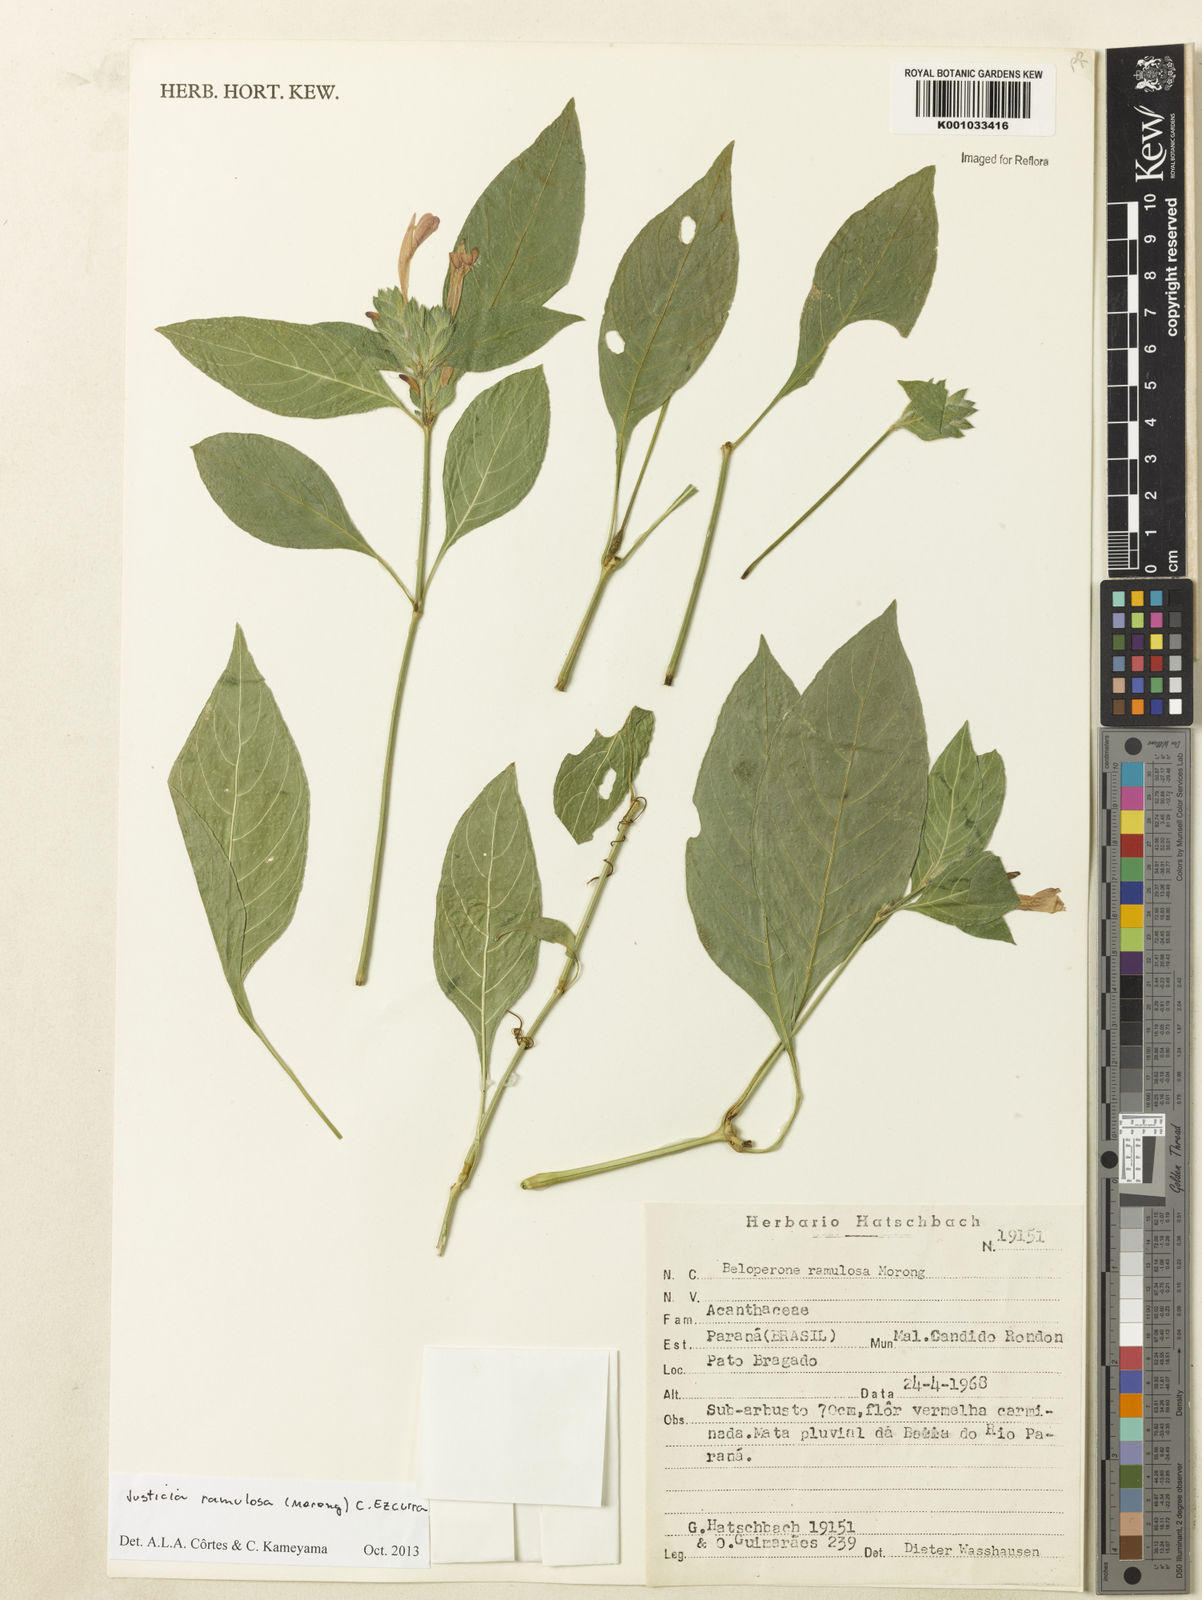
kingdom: Plantae
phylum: Tracheophyta
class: Magnoliopsida
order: Lamiales
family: Acanthaceae
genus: Justicia
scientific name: Justicia ramulosa
